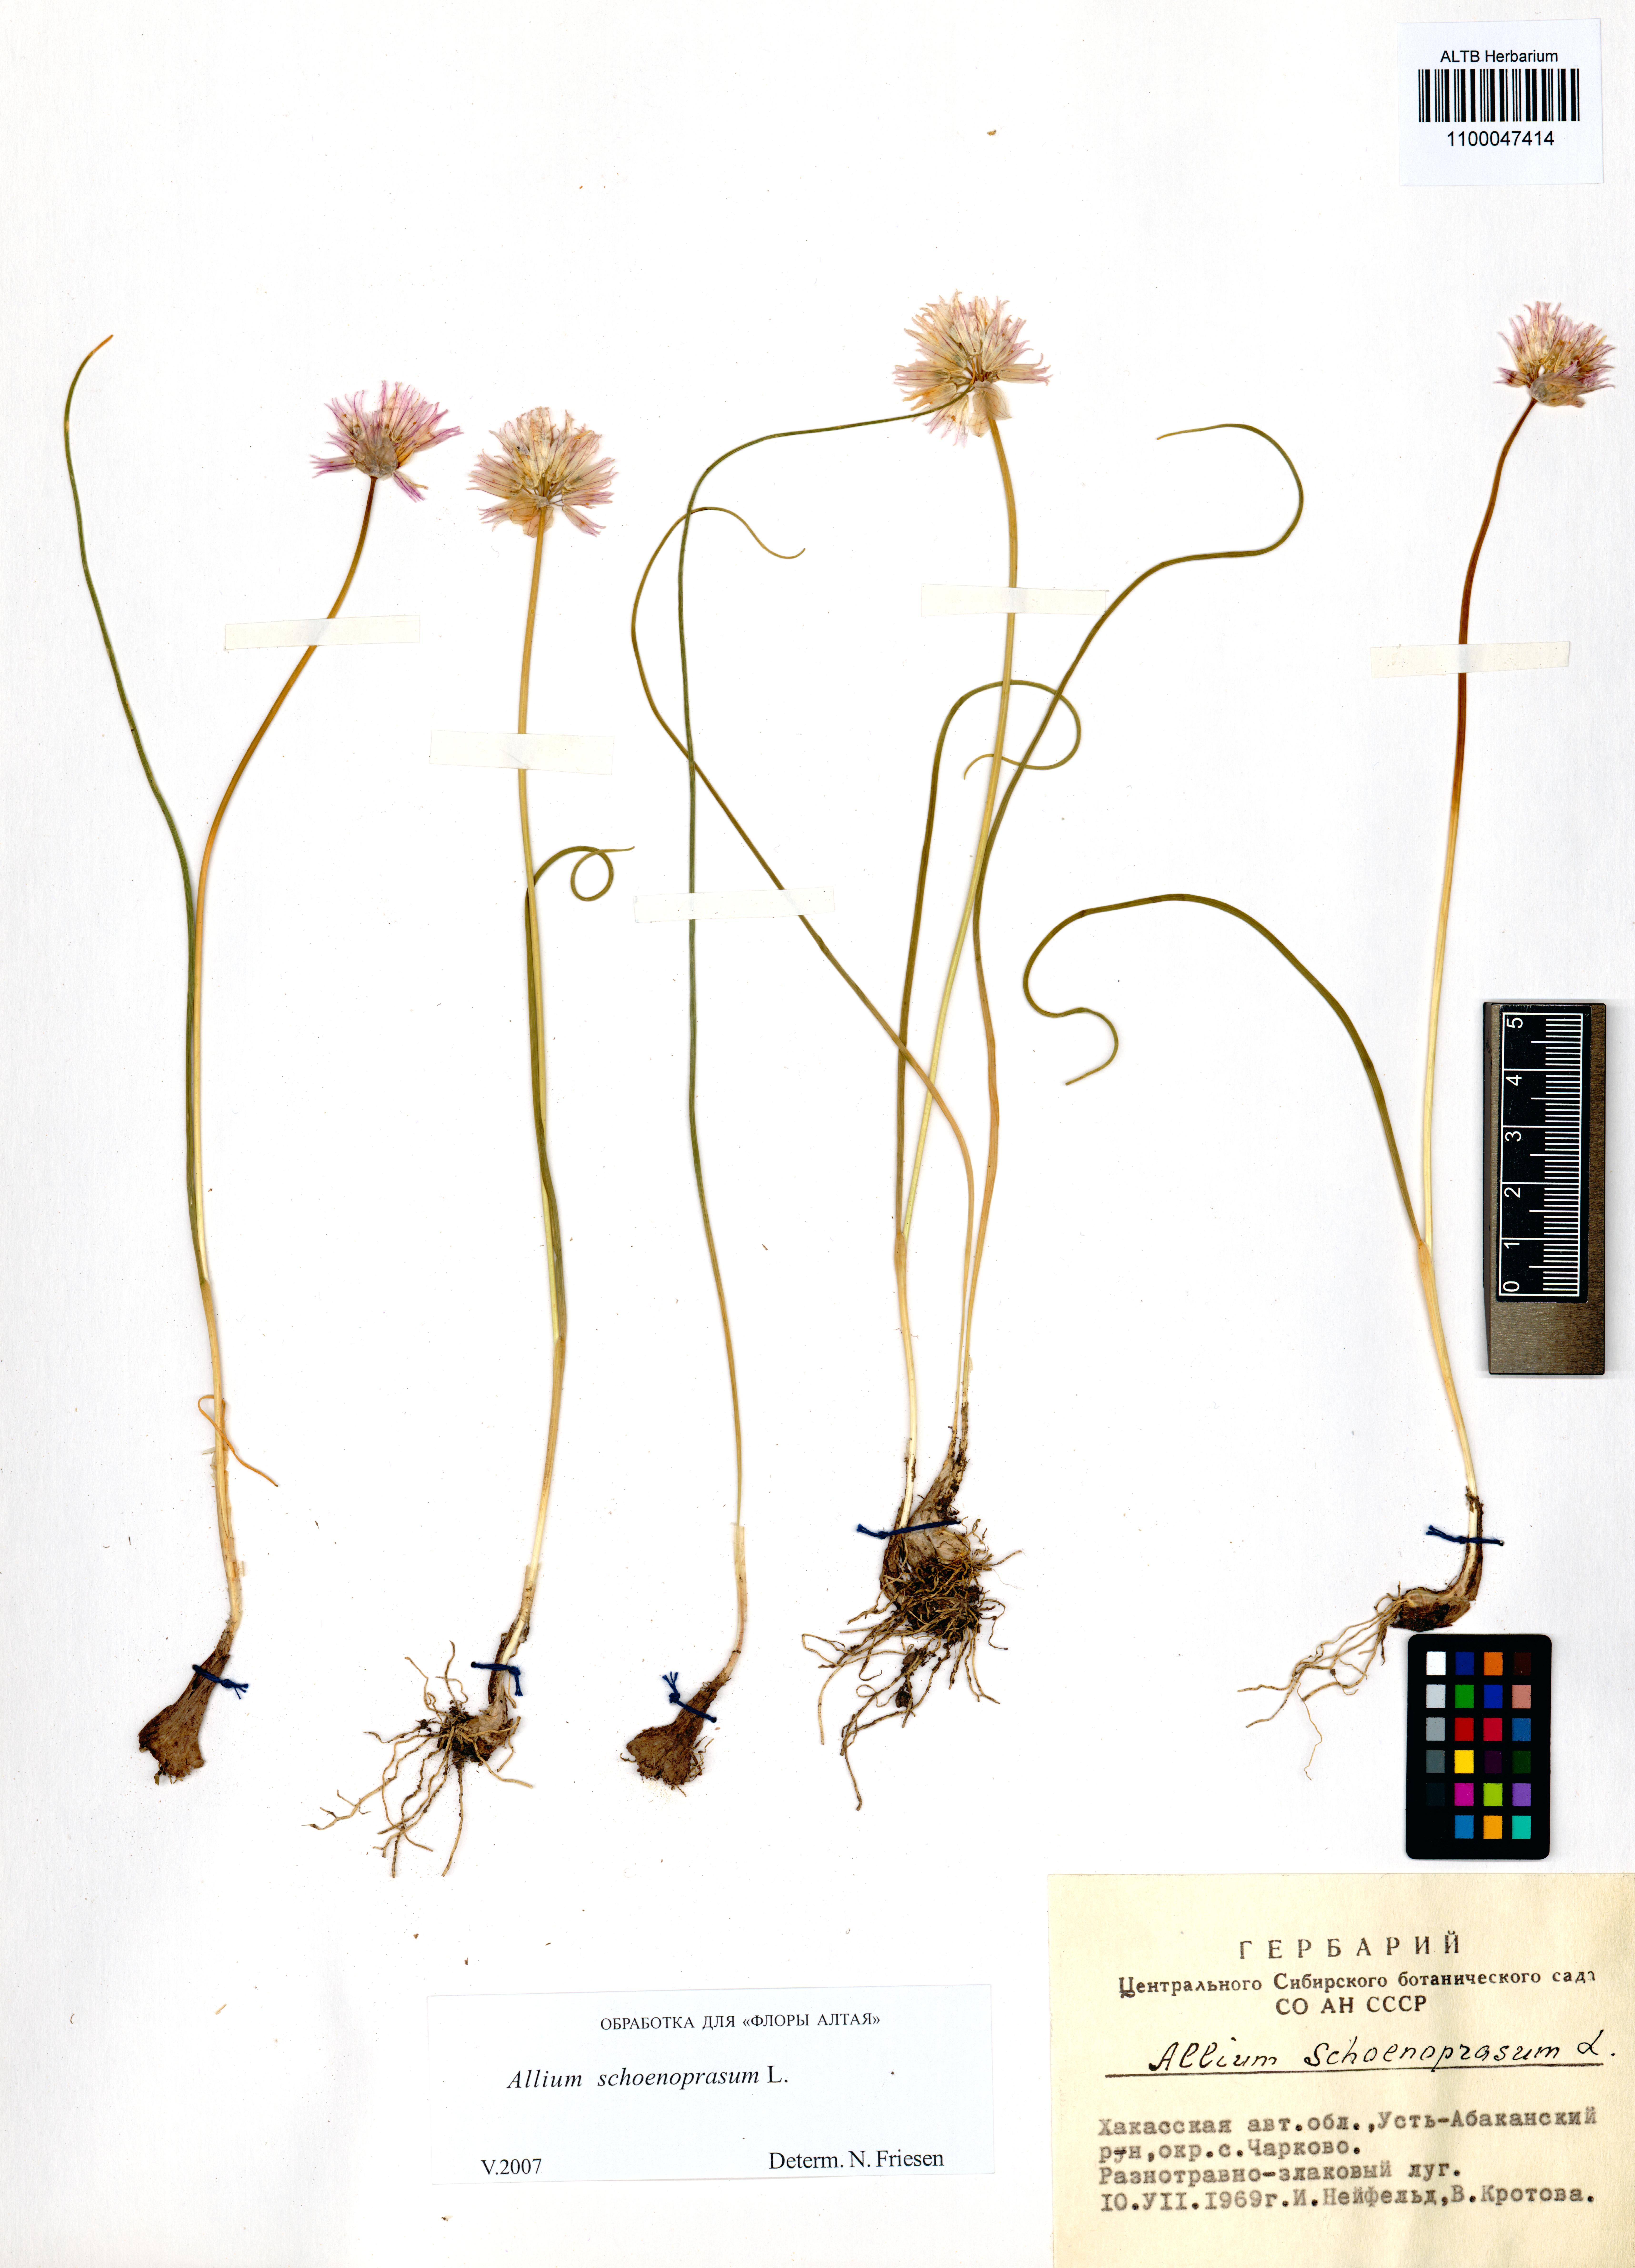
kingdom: Plantae
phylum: Tracheophyta
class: Liliopsida
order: Asparagales
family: Amaryllidaceae
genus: Allium
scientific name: Allium schoenoprasum
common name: Chives
